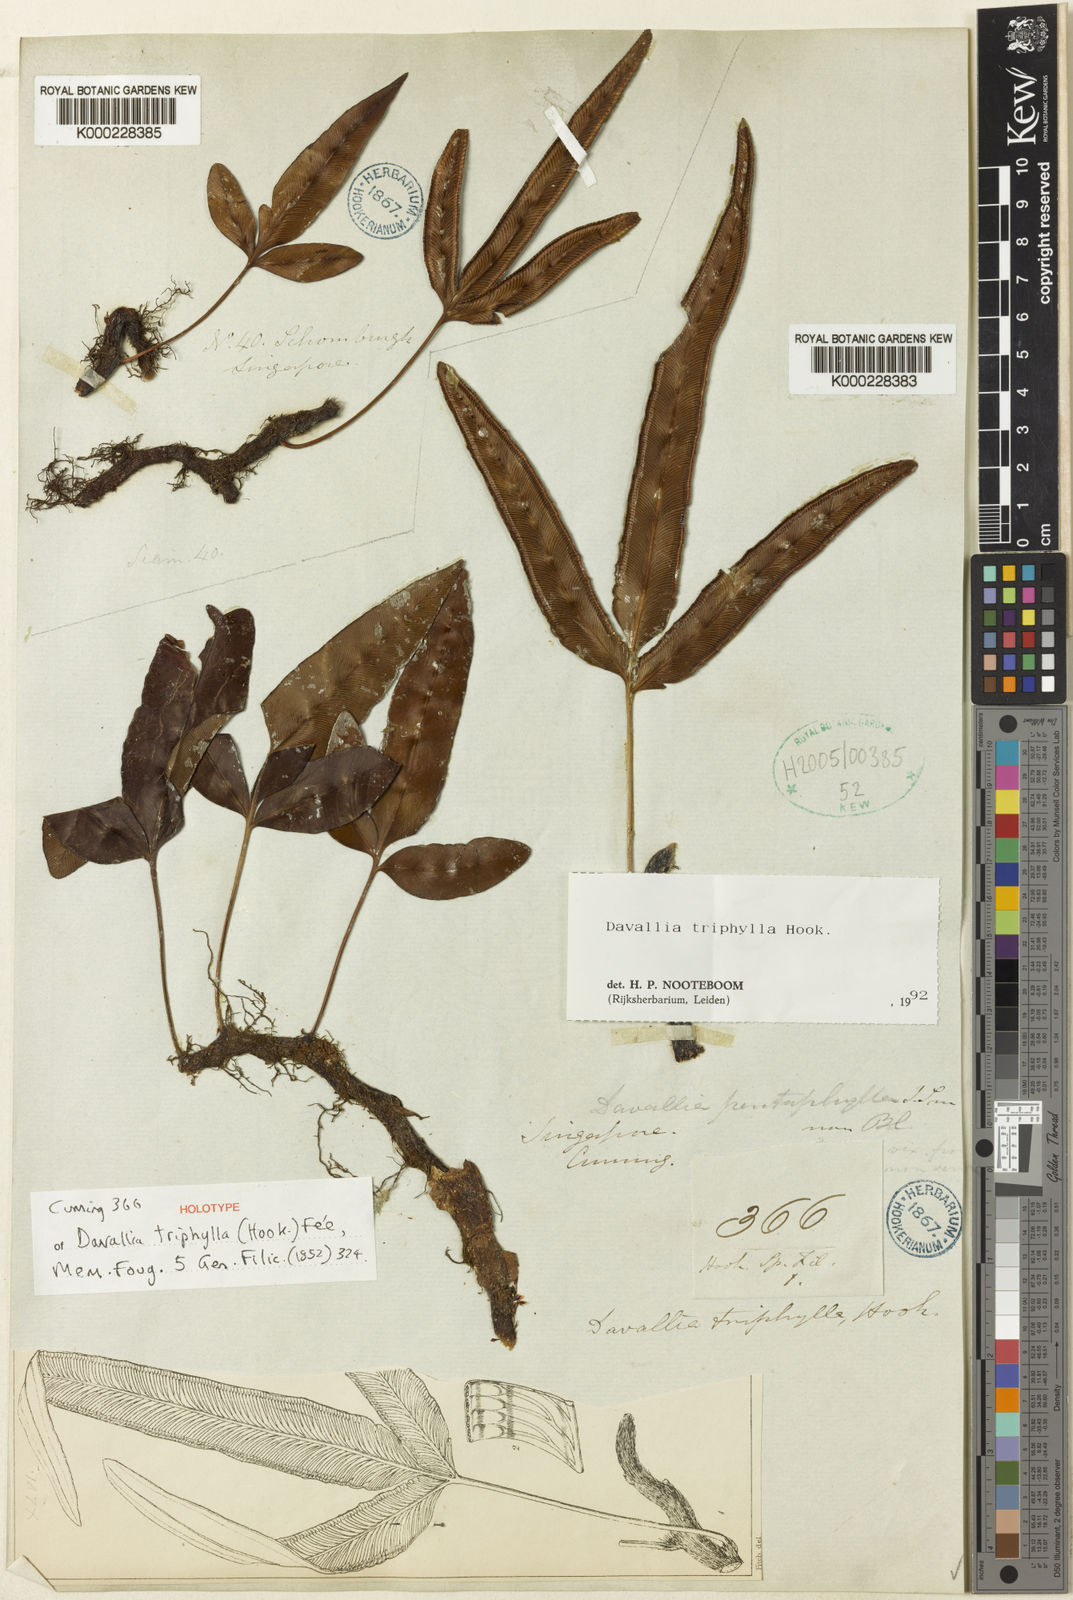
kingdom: Plantae
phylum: Tracheophyta
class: Polypodiopsida
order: Polypodiales
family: Davalliaceae
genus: Davallia
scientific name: Davallia
